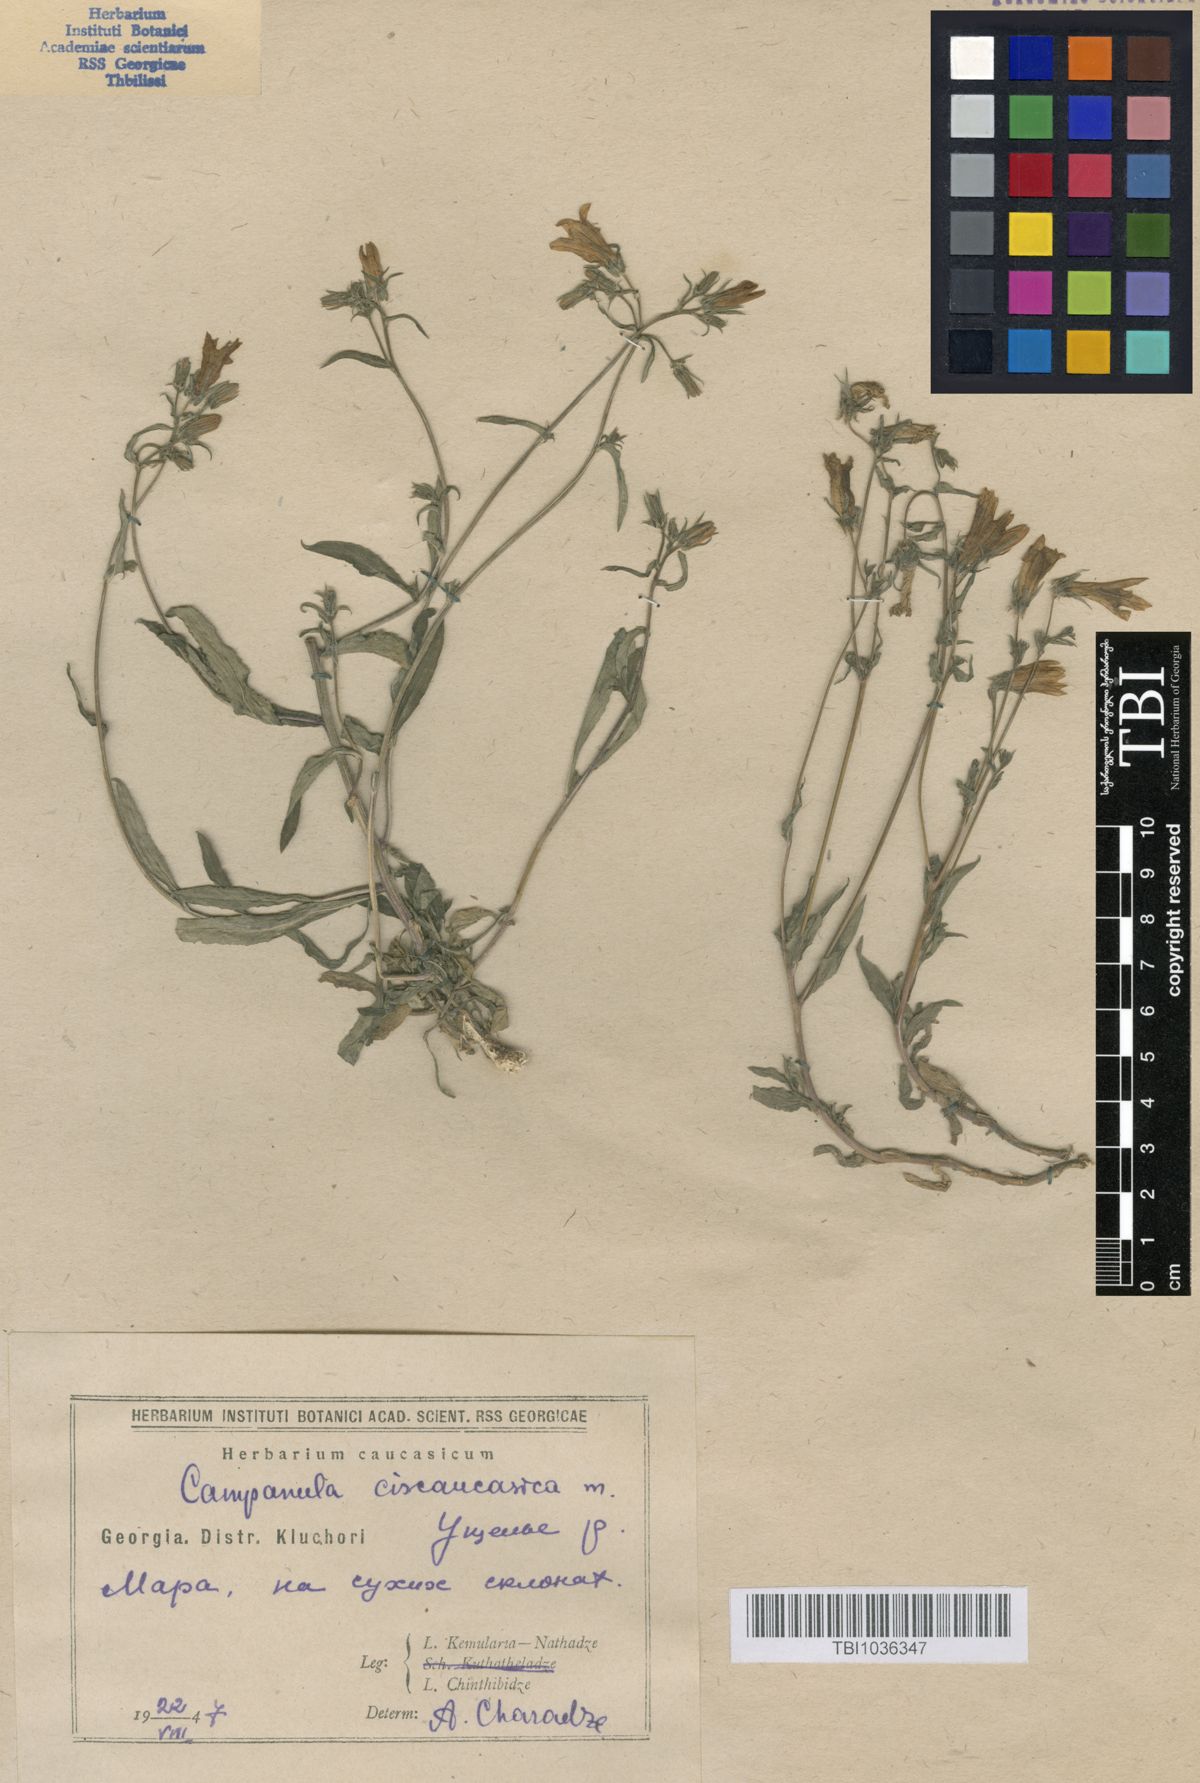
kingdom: Plantae
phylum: Tracheophyta
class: Magnoliopsida
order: Asterales
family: Campanulaceae
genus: Campanula
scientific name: Campanula sibirica
